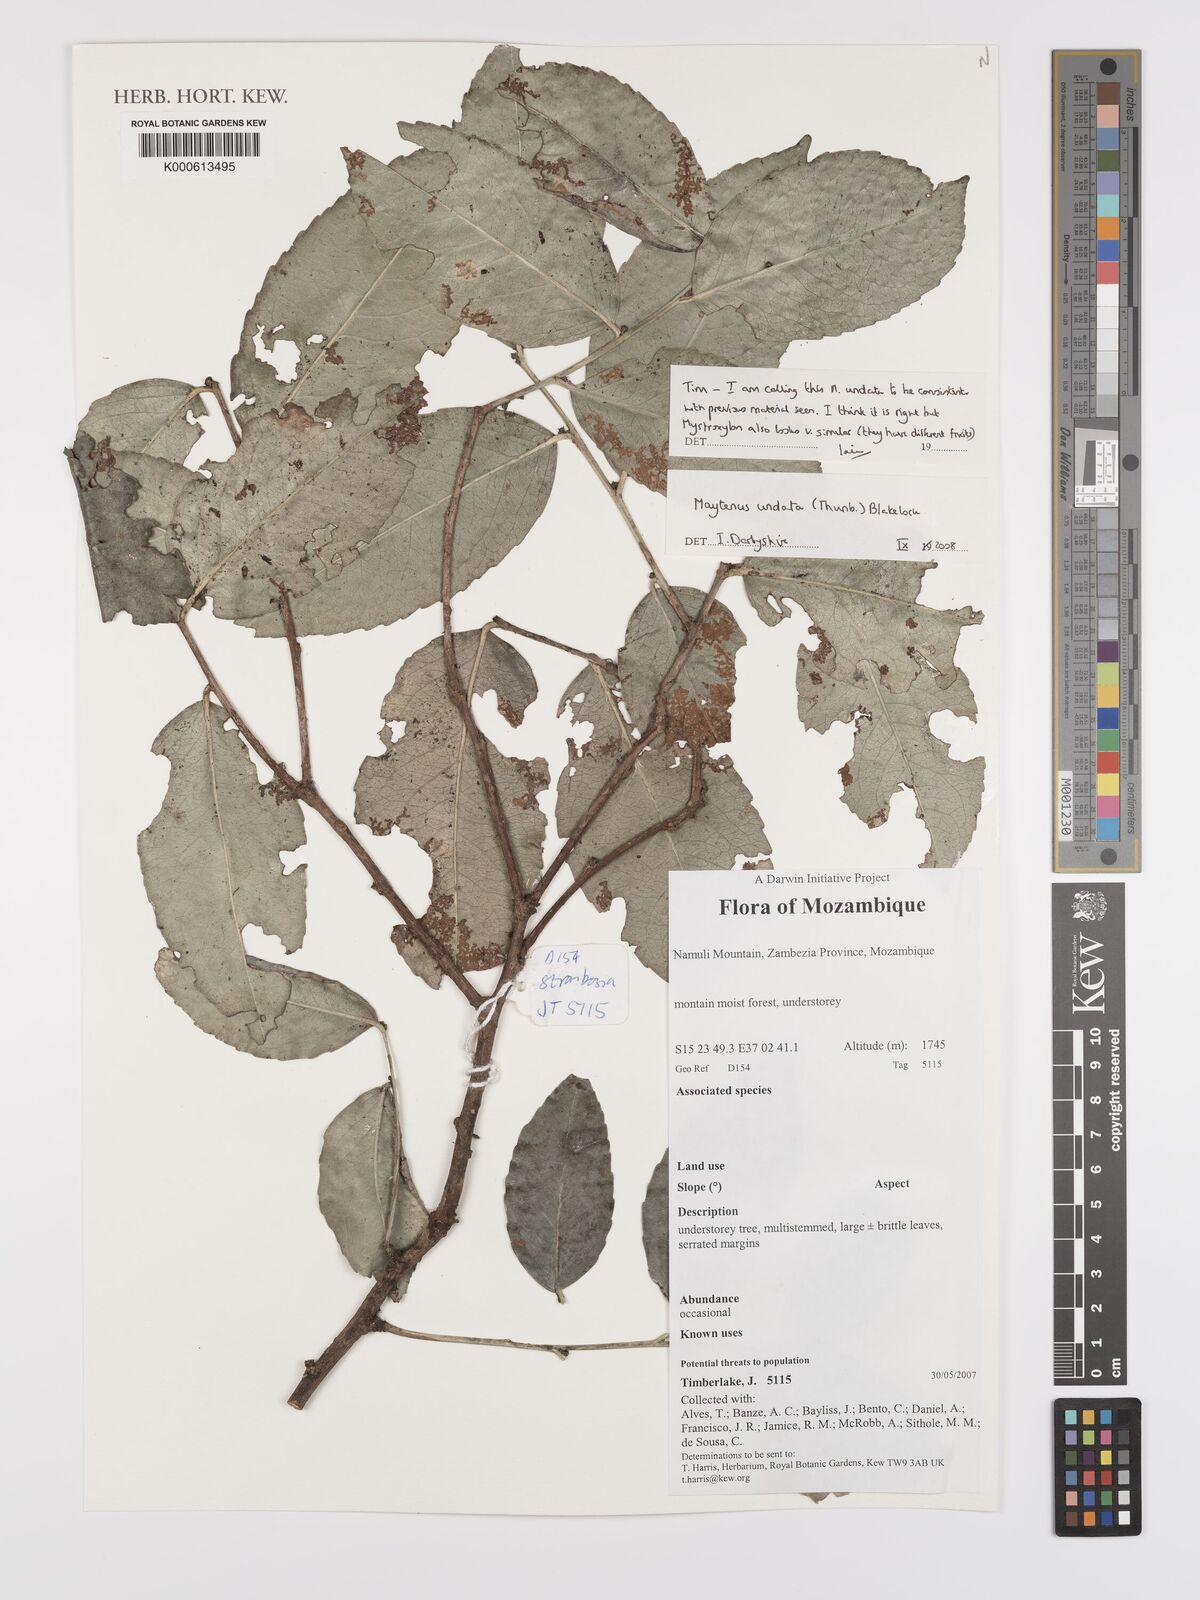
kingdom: Plantae
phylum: Tracheophyta
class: Magnoliopsida
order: Celastrales
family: Celastraceae
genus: Gymnosporia
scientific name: Gymnosporia undata
